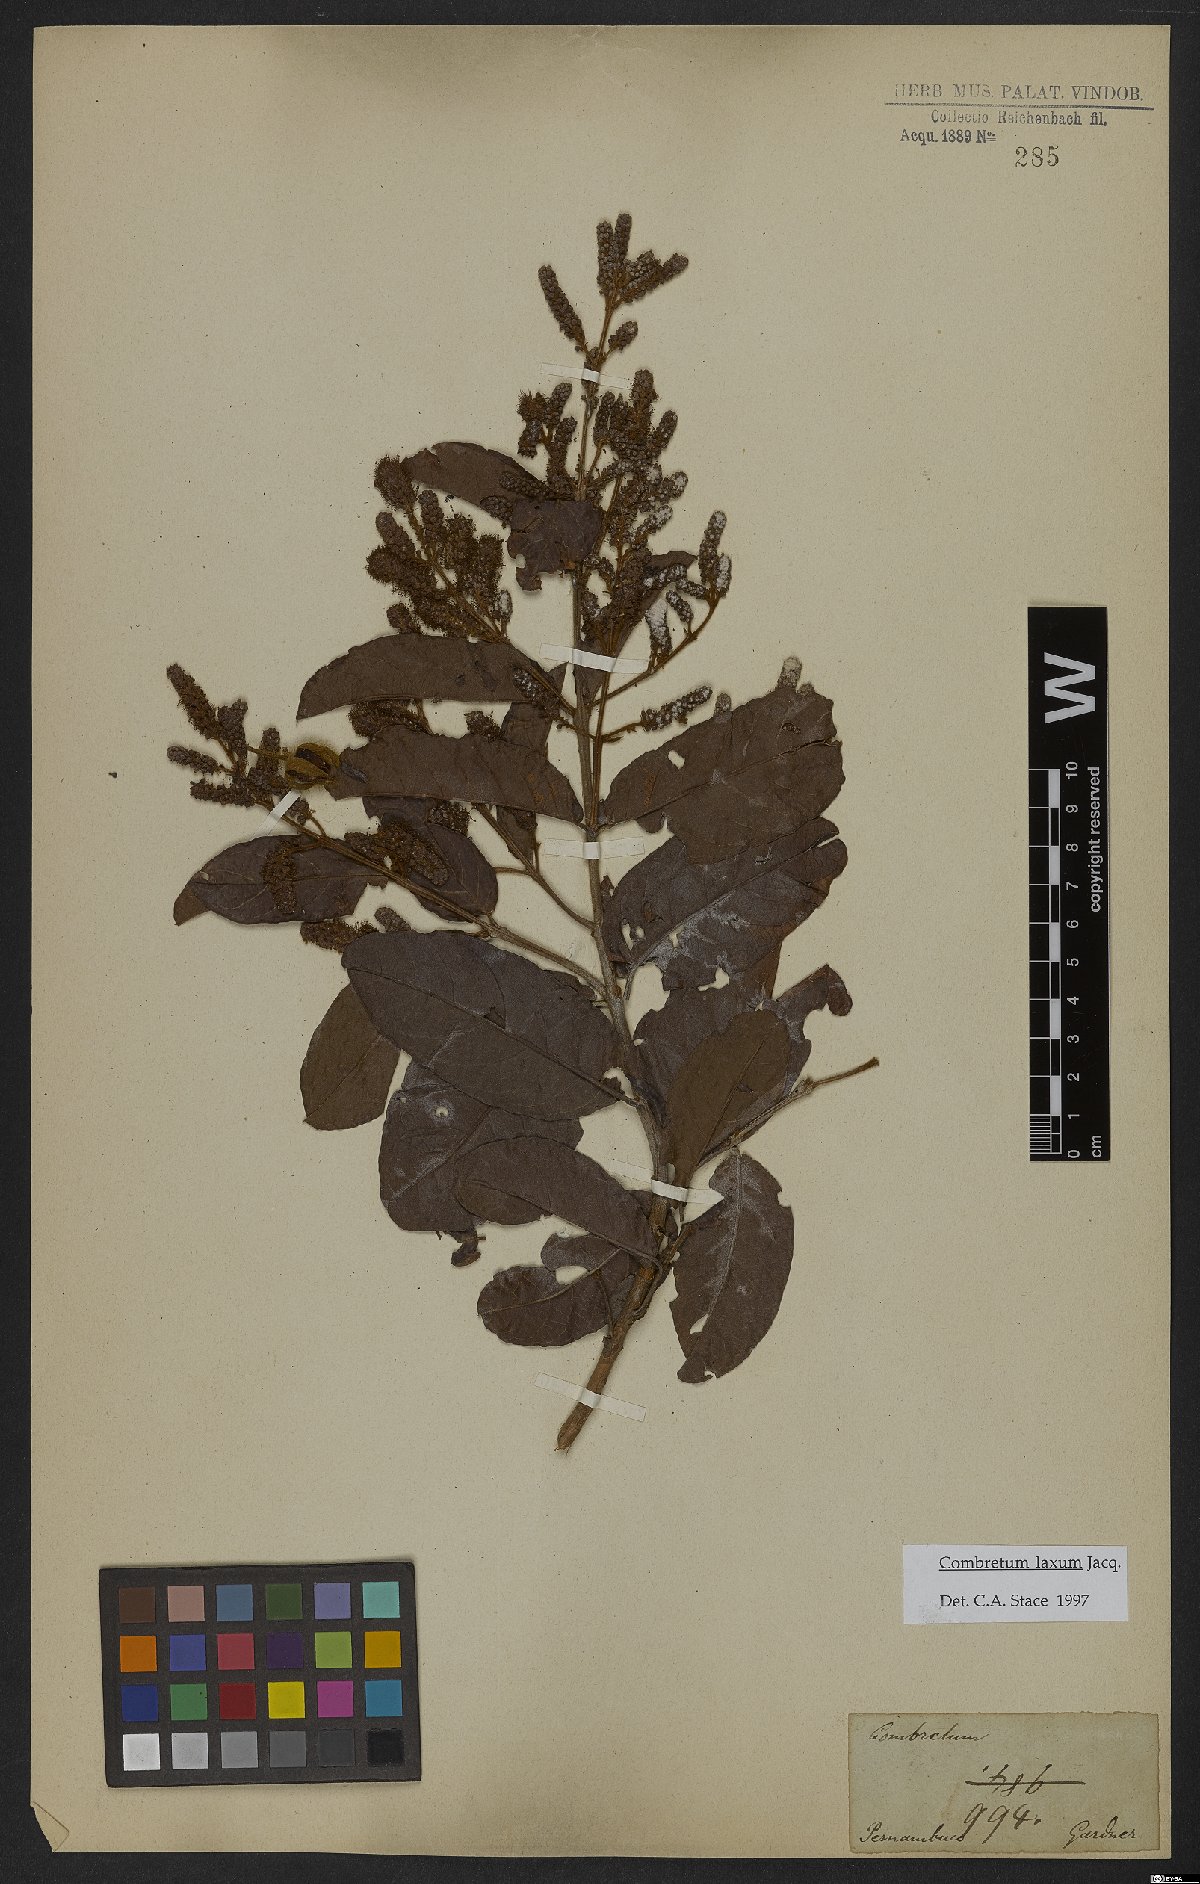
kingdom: Plantae
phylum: Tracheophyta
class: Magnoliopsida
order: Myrtales
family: Combretaceae
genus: Combretum
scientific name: Combretum laxum
